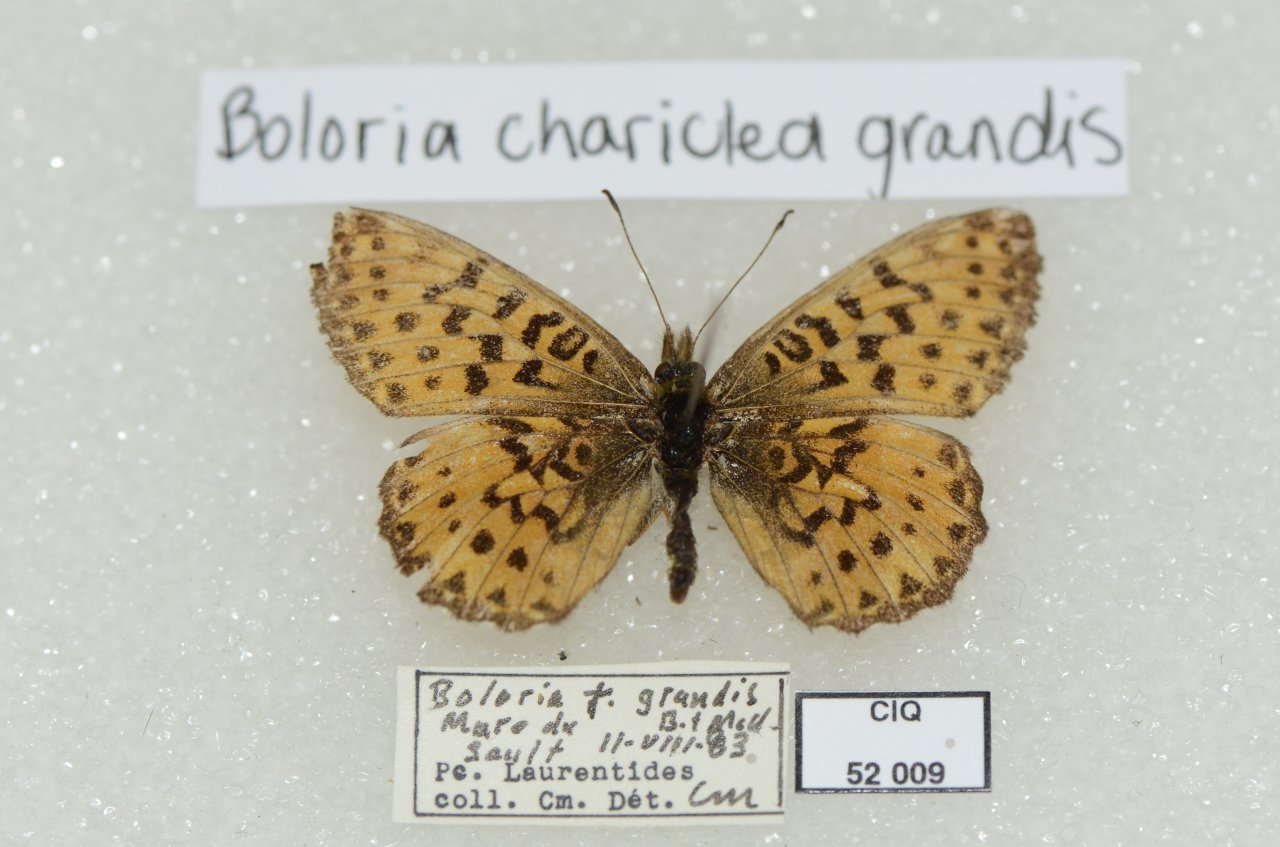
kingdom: Animalia
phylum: Arthropoda
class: Insecta
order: Lepidoptera
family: Nymphalidae
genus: Boloria
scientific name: Boloria chariclea
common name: Arctic Fritillary
